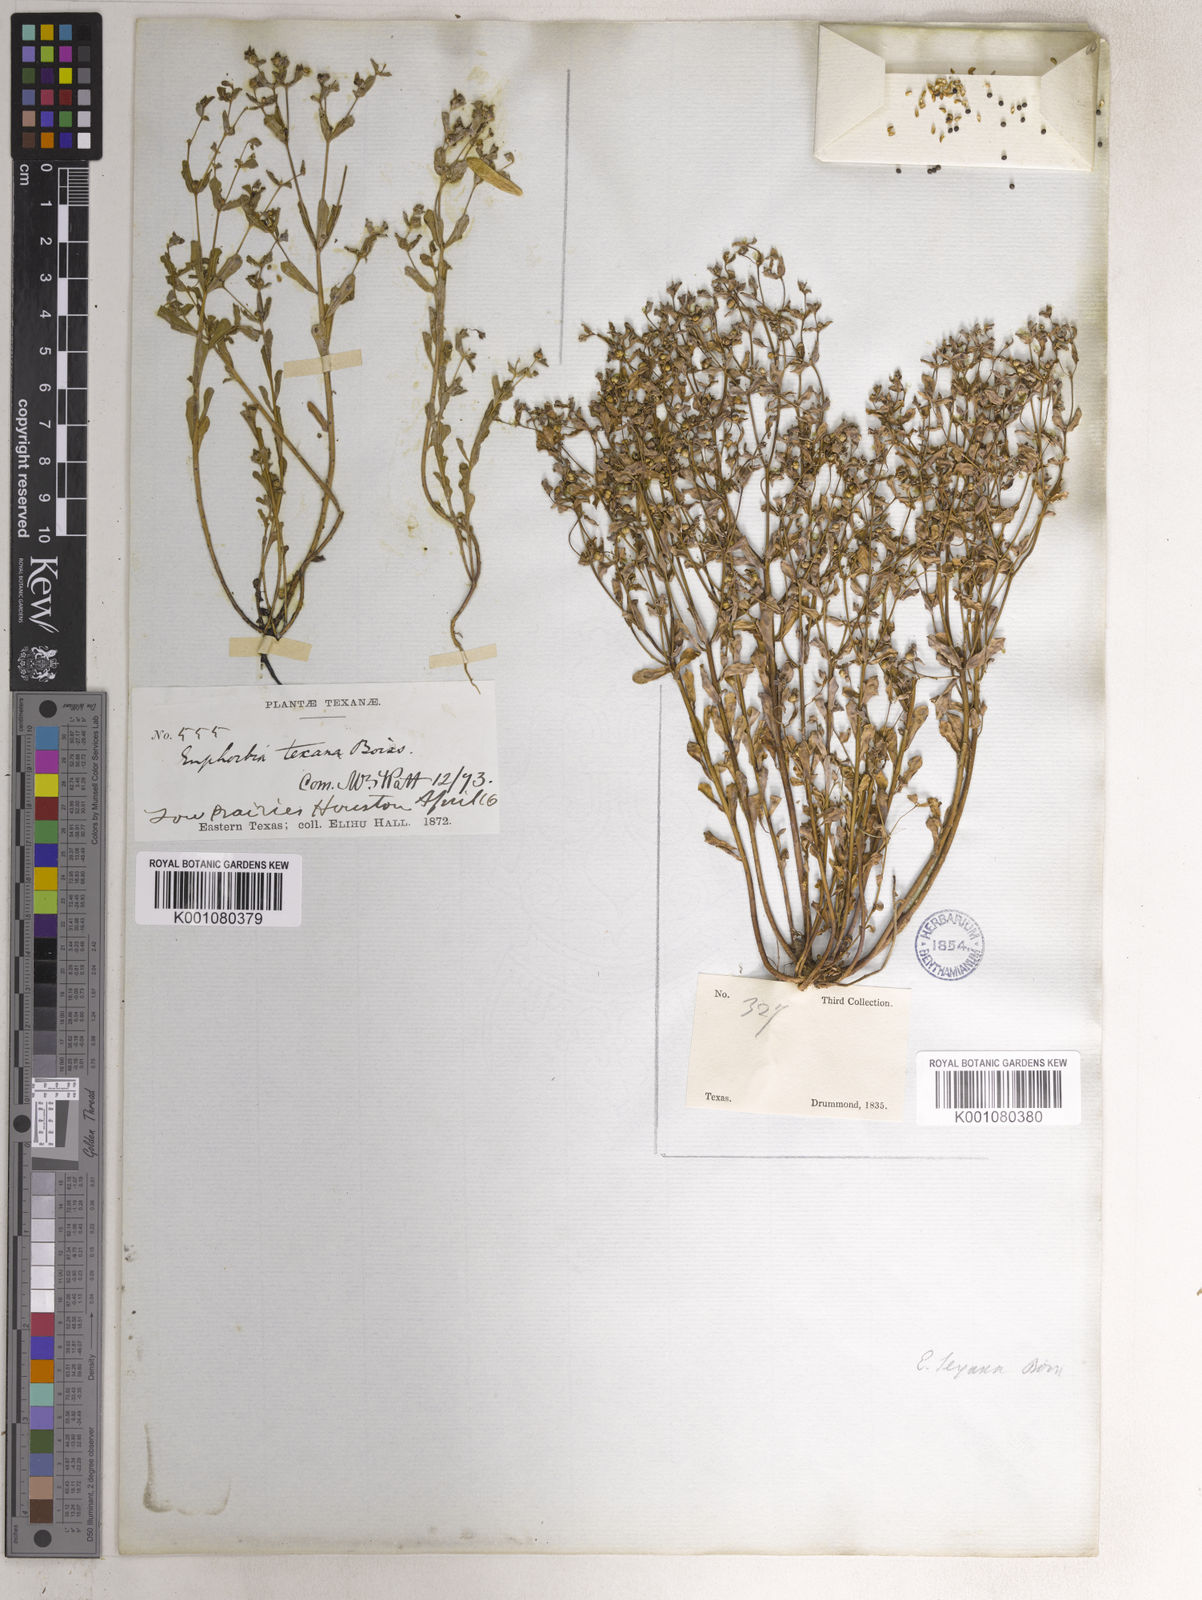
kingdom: Plantae
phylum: Tracheophyta
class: Magnoliopsida
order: Malpighiales
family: Euphorbiaceae
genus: Euphorbia
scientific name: Euphorbia texana
